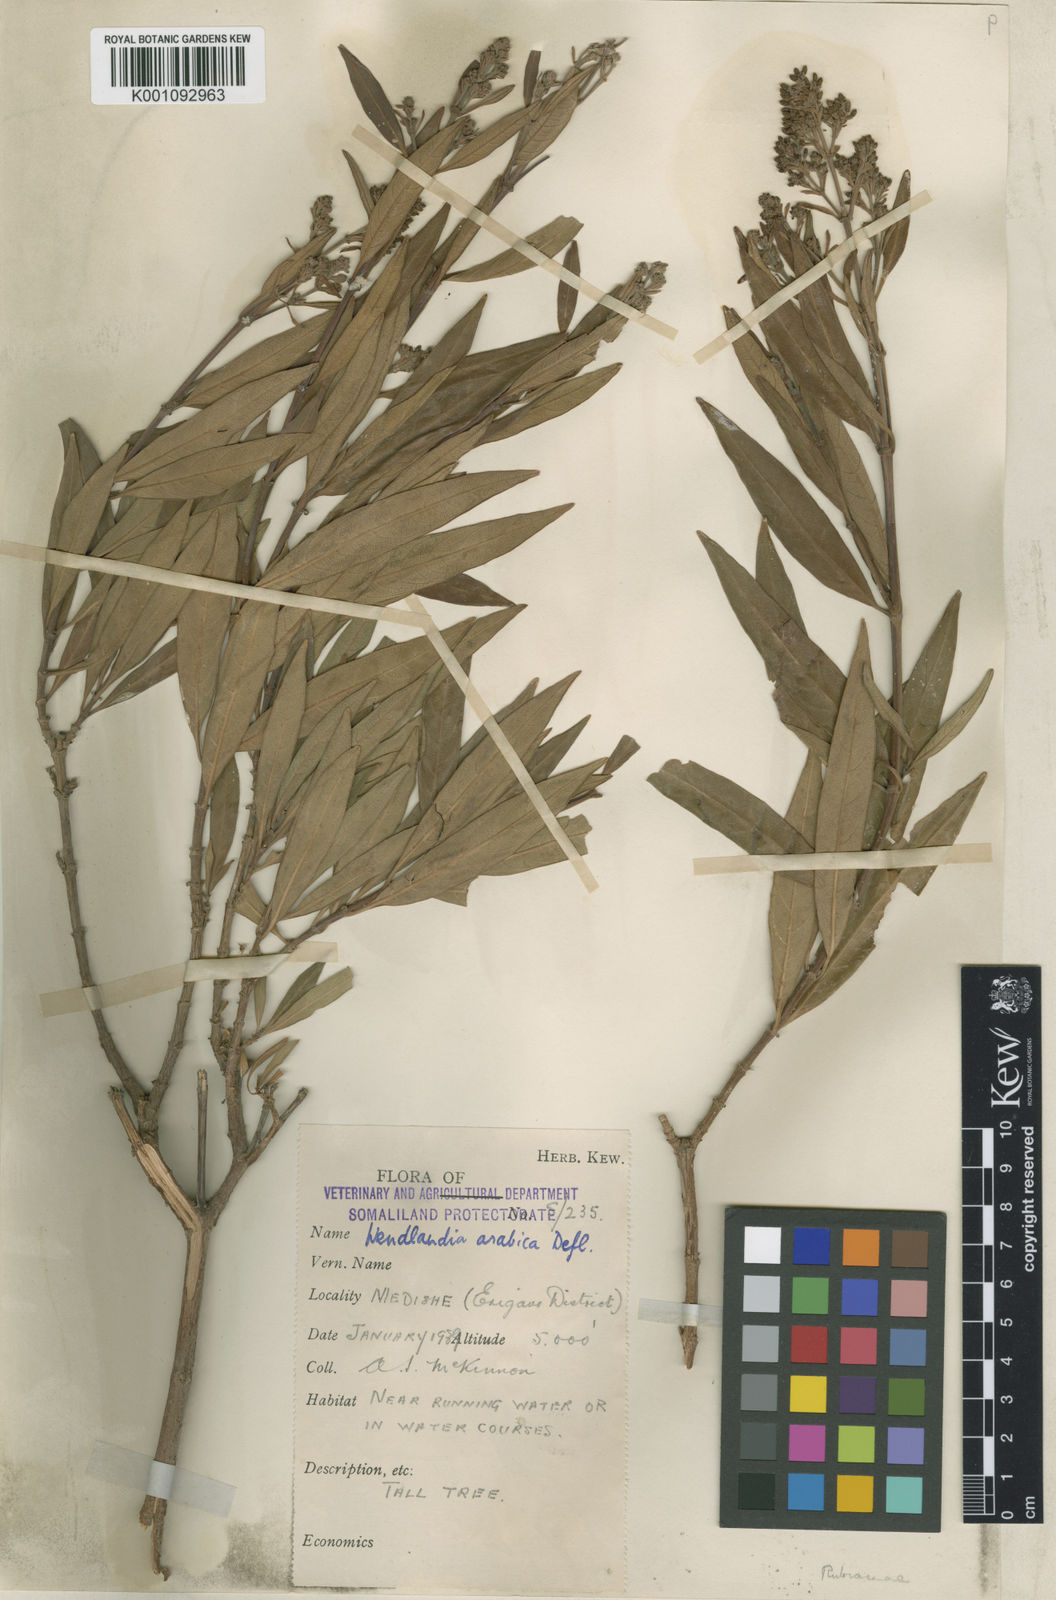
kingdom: Plantae
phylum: Tracheophyta
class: Magnoliopsida
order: Gentianales
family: Rubiaceae
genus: Wendlandia
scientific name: Wendlandia arabica
